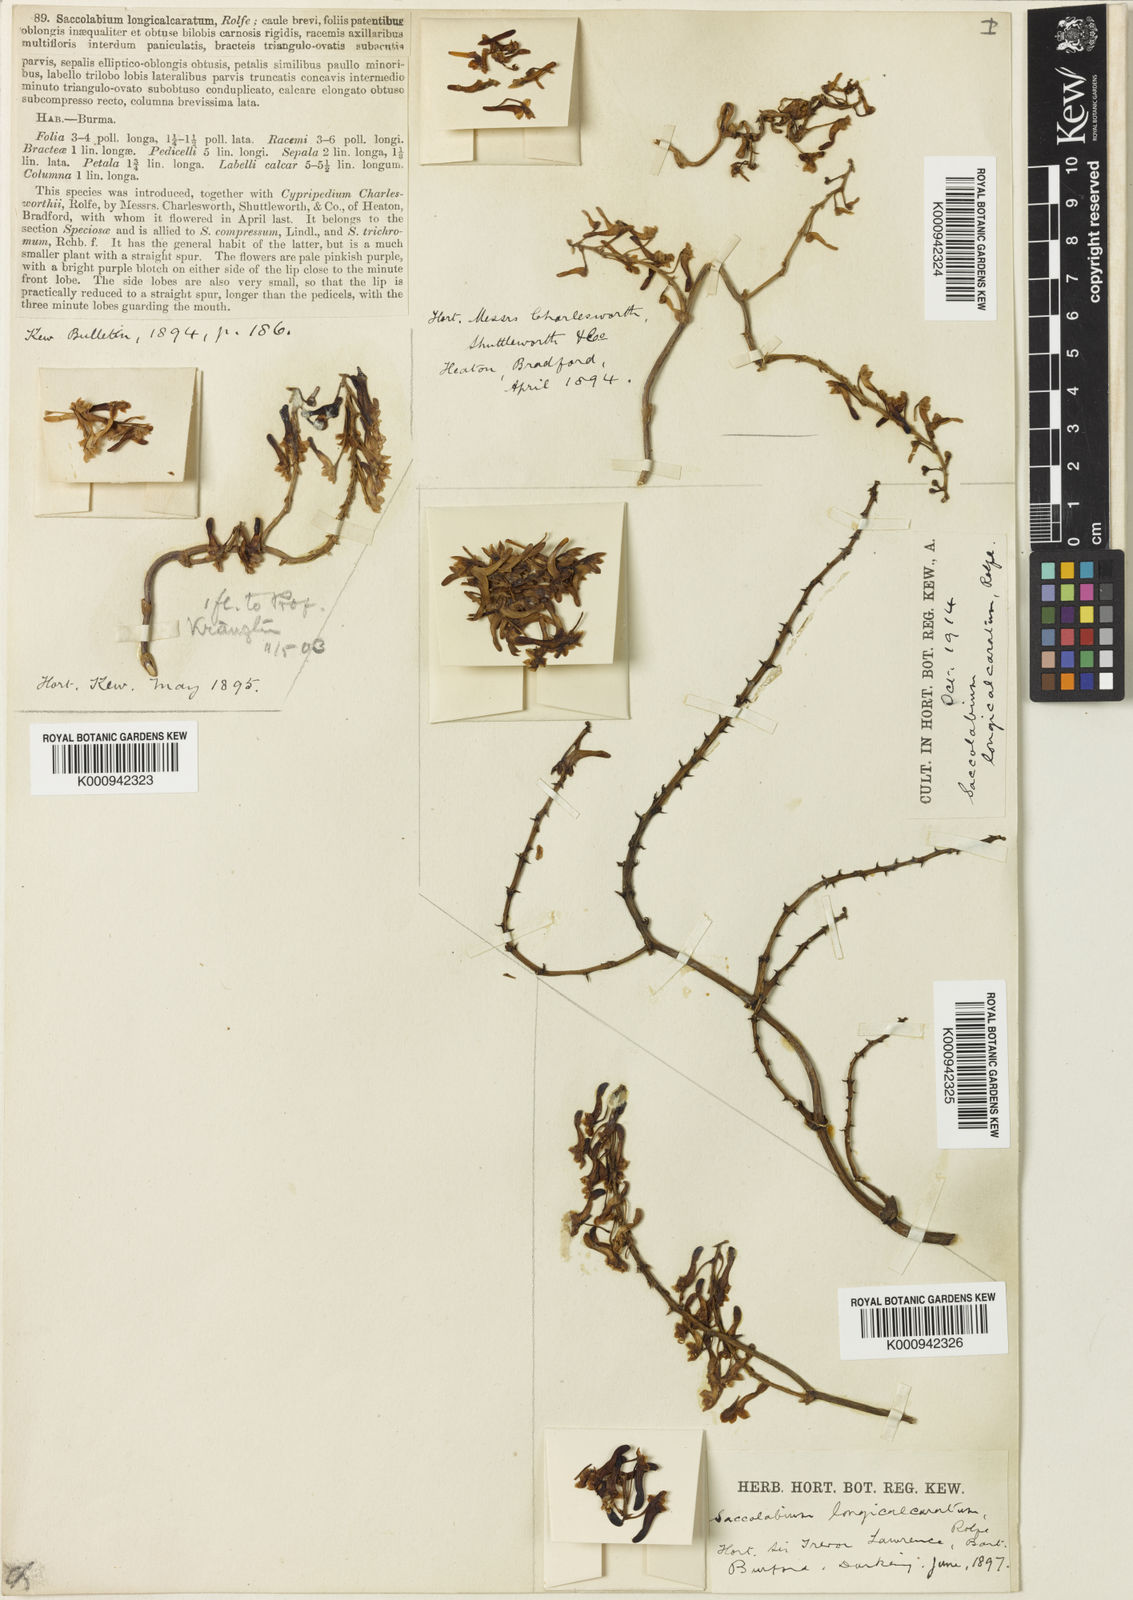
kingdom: Plantae
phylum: Tracheophyta
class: Liliopsida
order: Asparagales
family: Orchidaceae
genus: Robiquetia
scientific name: Robiquetia pachyphylla
